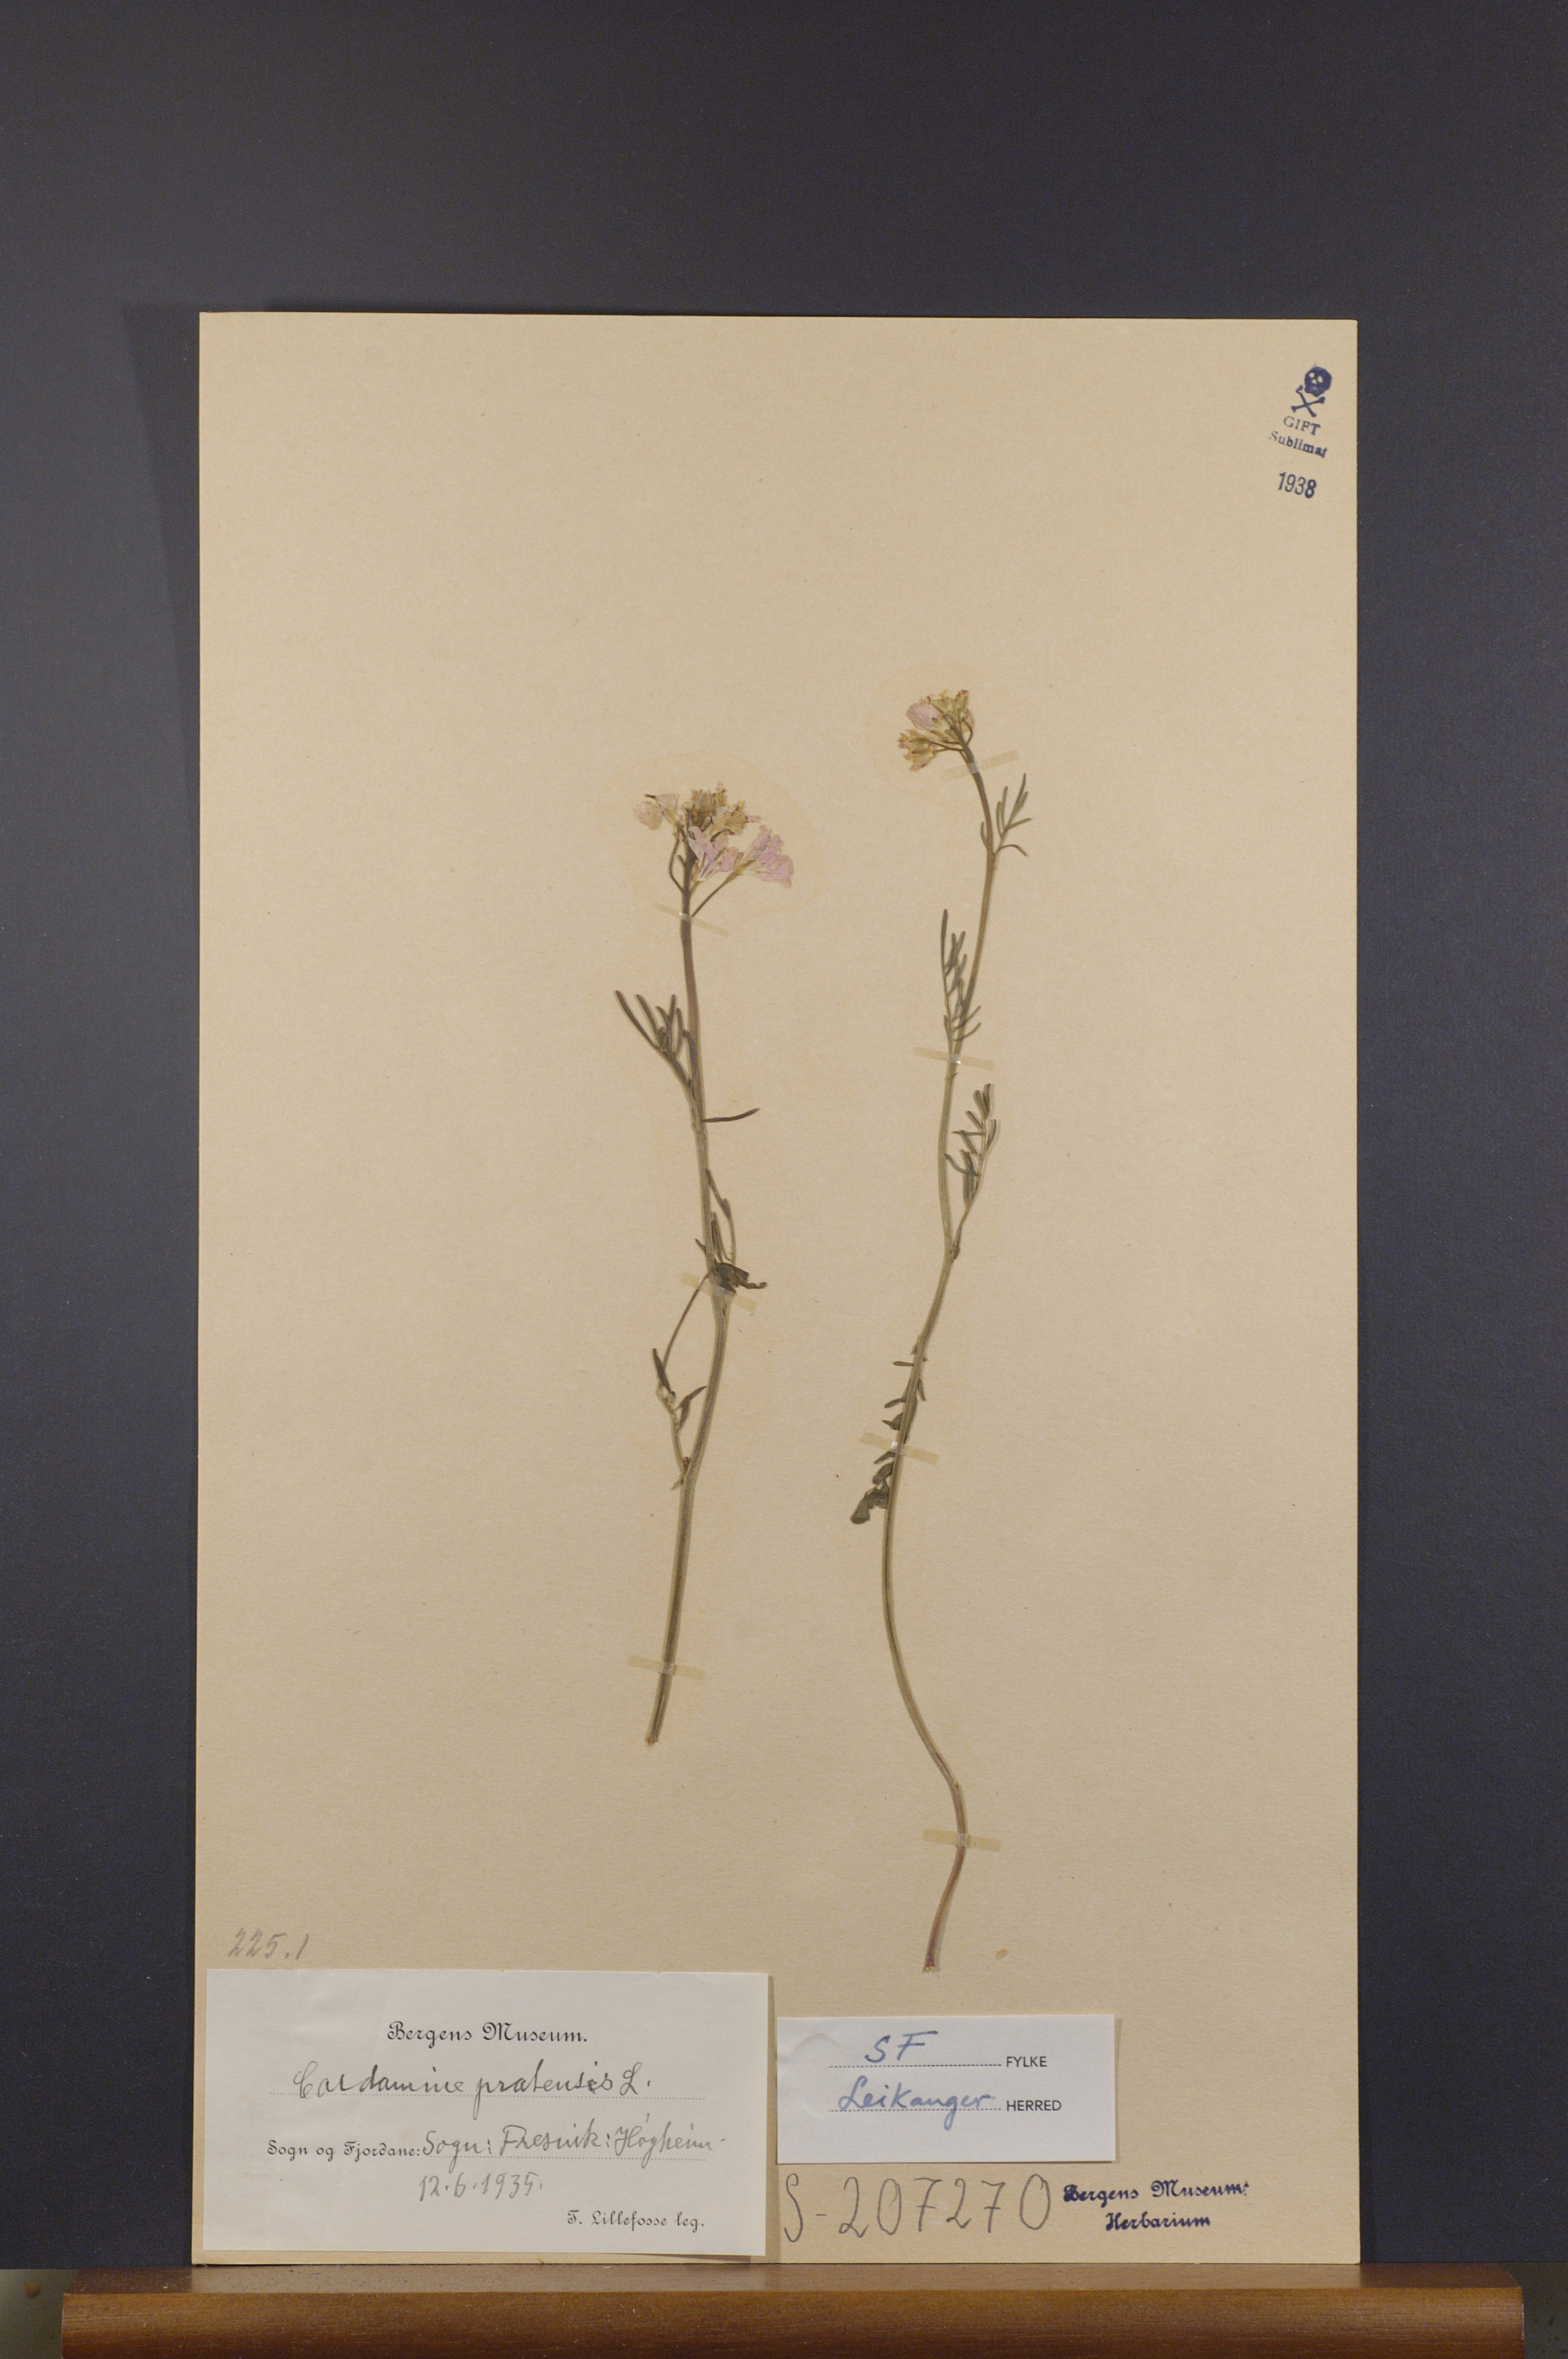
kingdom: Plantae
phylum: Tracheophyta
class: Magnoliopsida
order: Brassicales
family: Brassicaceae
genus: Cardamine
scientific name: Cardamine pratensis
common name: Cuckoo flower
